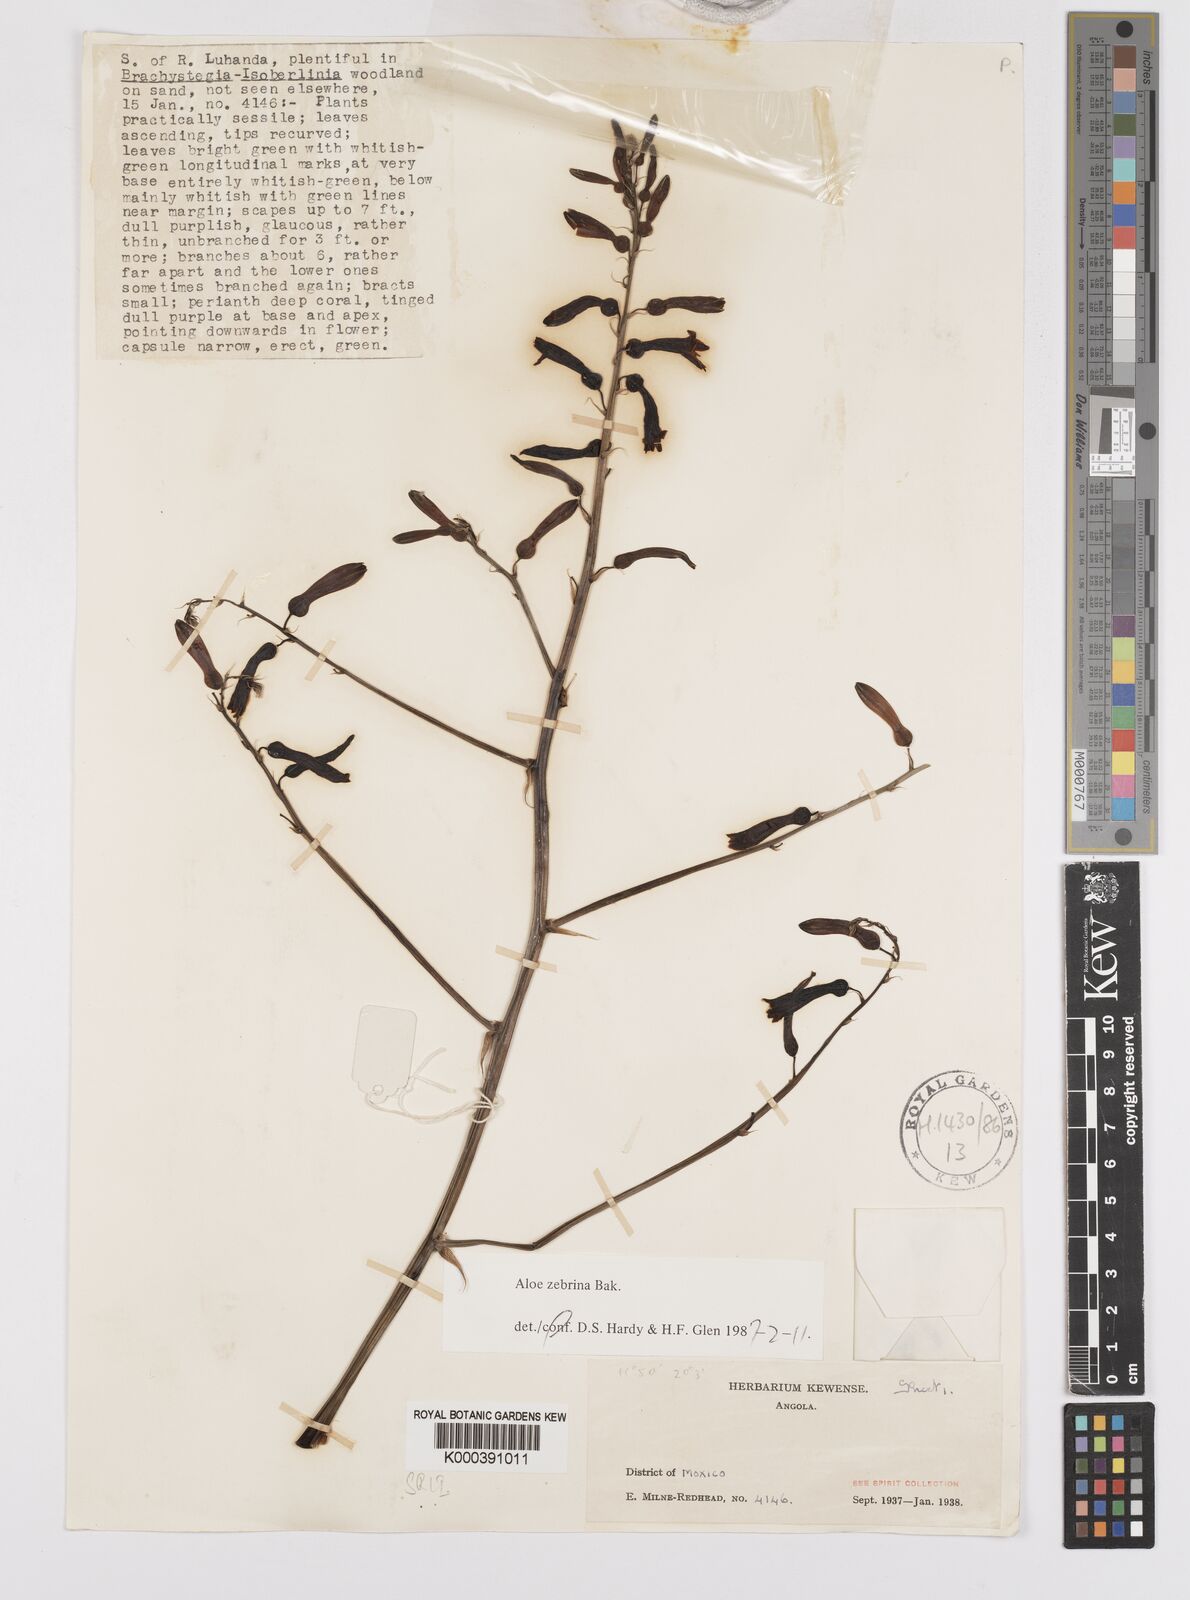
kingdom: Plantae
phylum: Tracheophyta
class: Liliopsida
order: Asparagales
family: Asphodelaceae
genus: Aloe
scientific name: Aloe zebrina
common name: Zebra-leaf aloe
